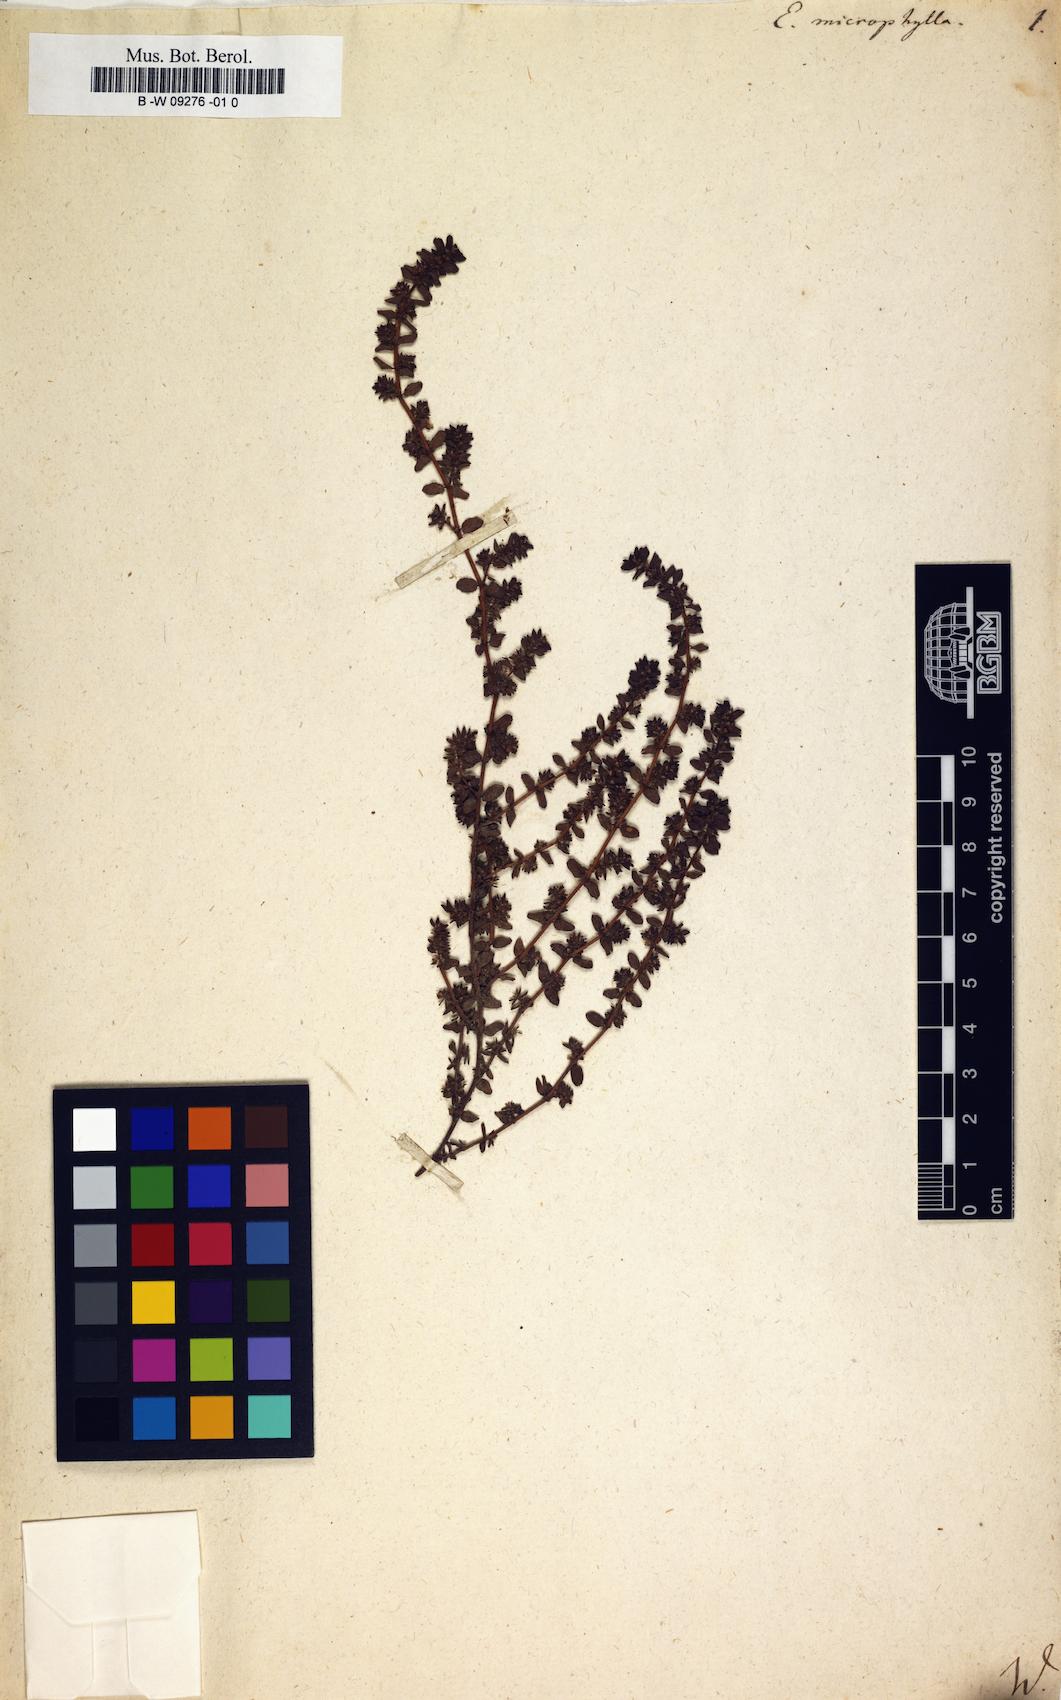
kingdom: Plantae
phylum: Tracheophyta
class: Magnoliopsida
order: Malpighiales
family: Euphorbiaceae
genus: Euphorbia
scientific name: Euphorbia
